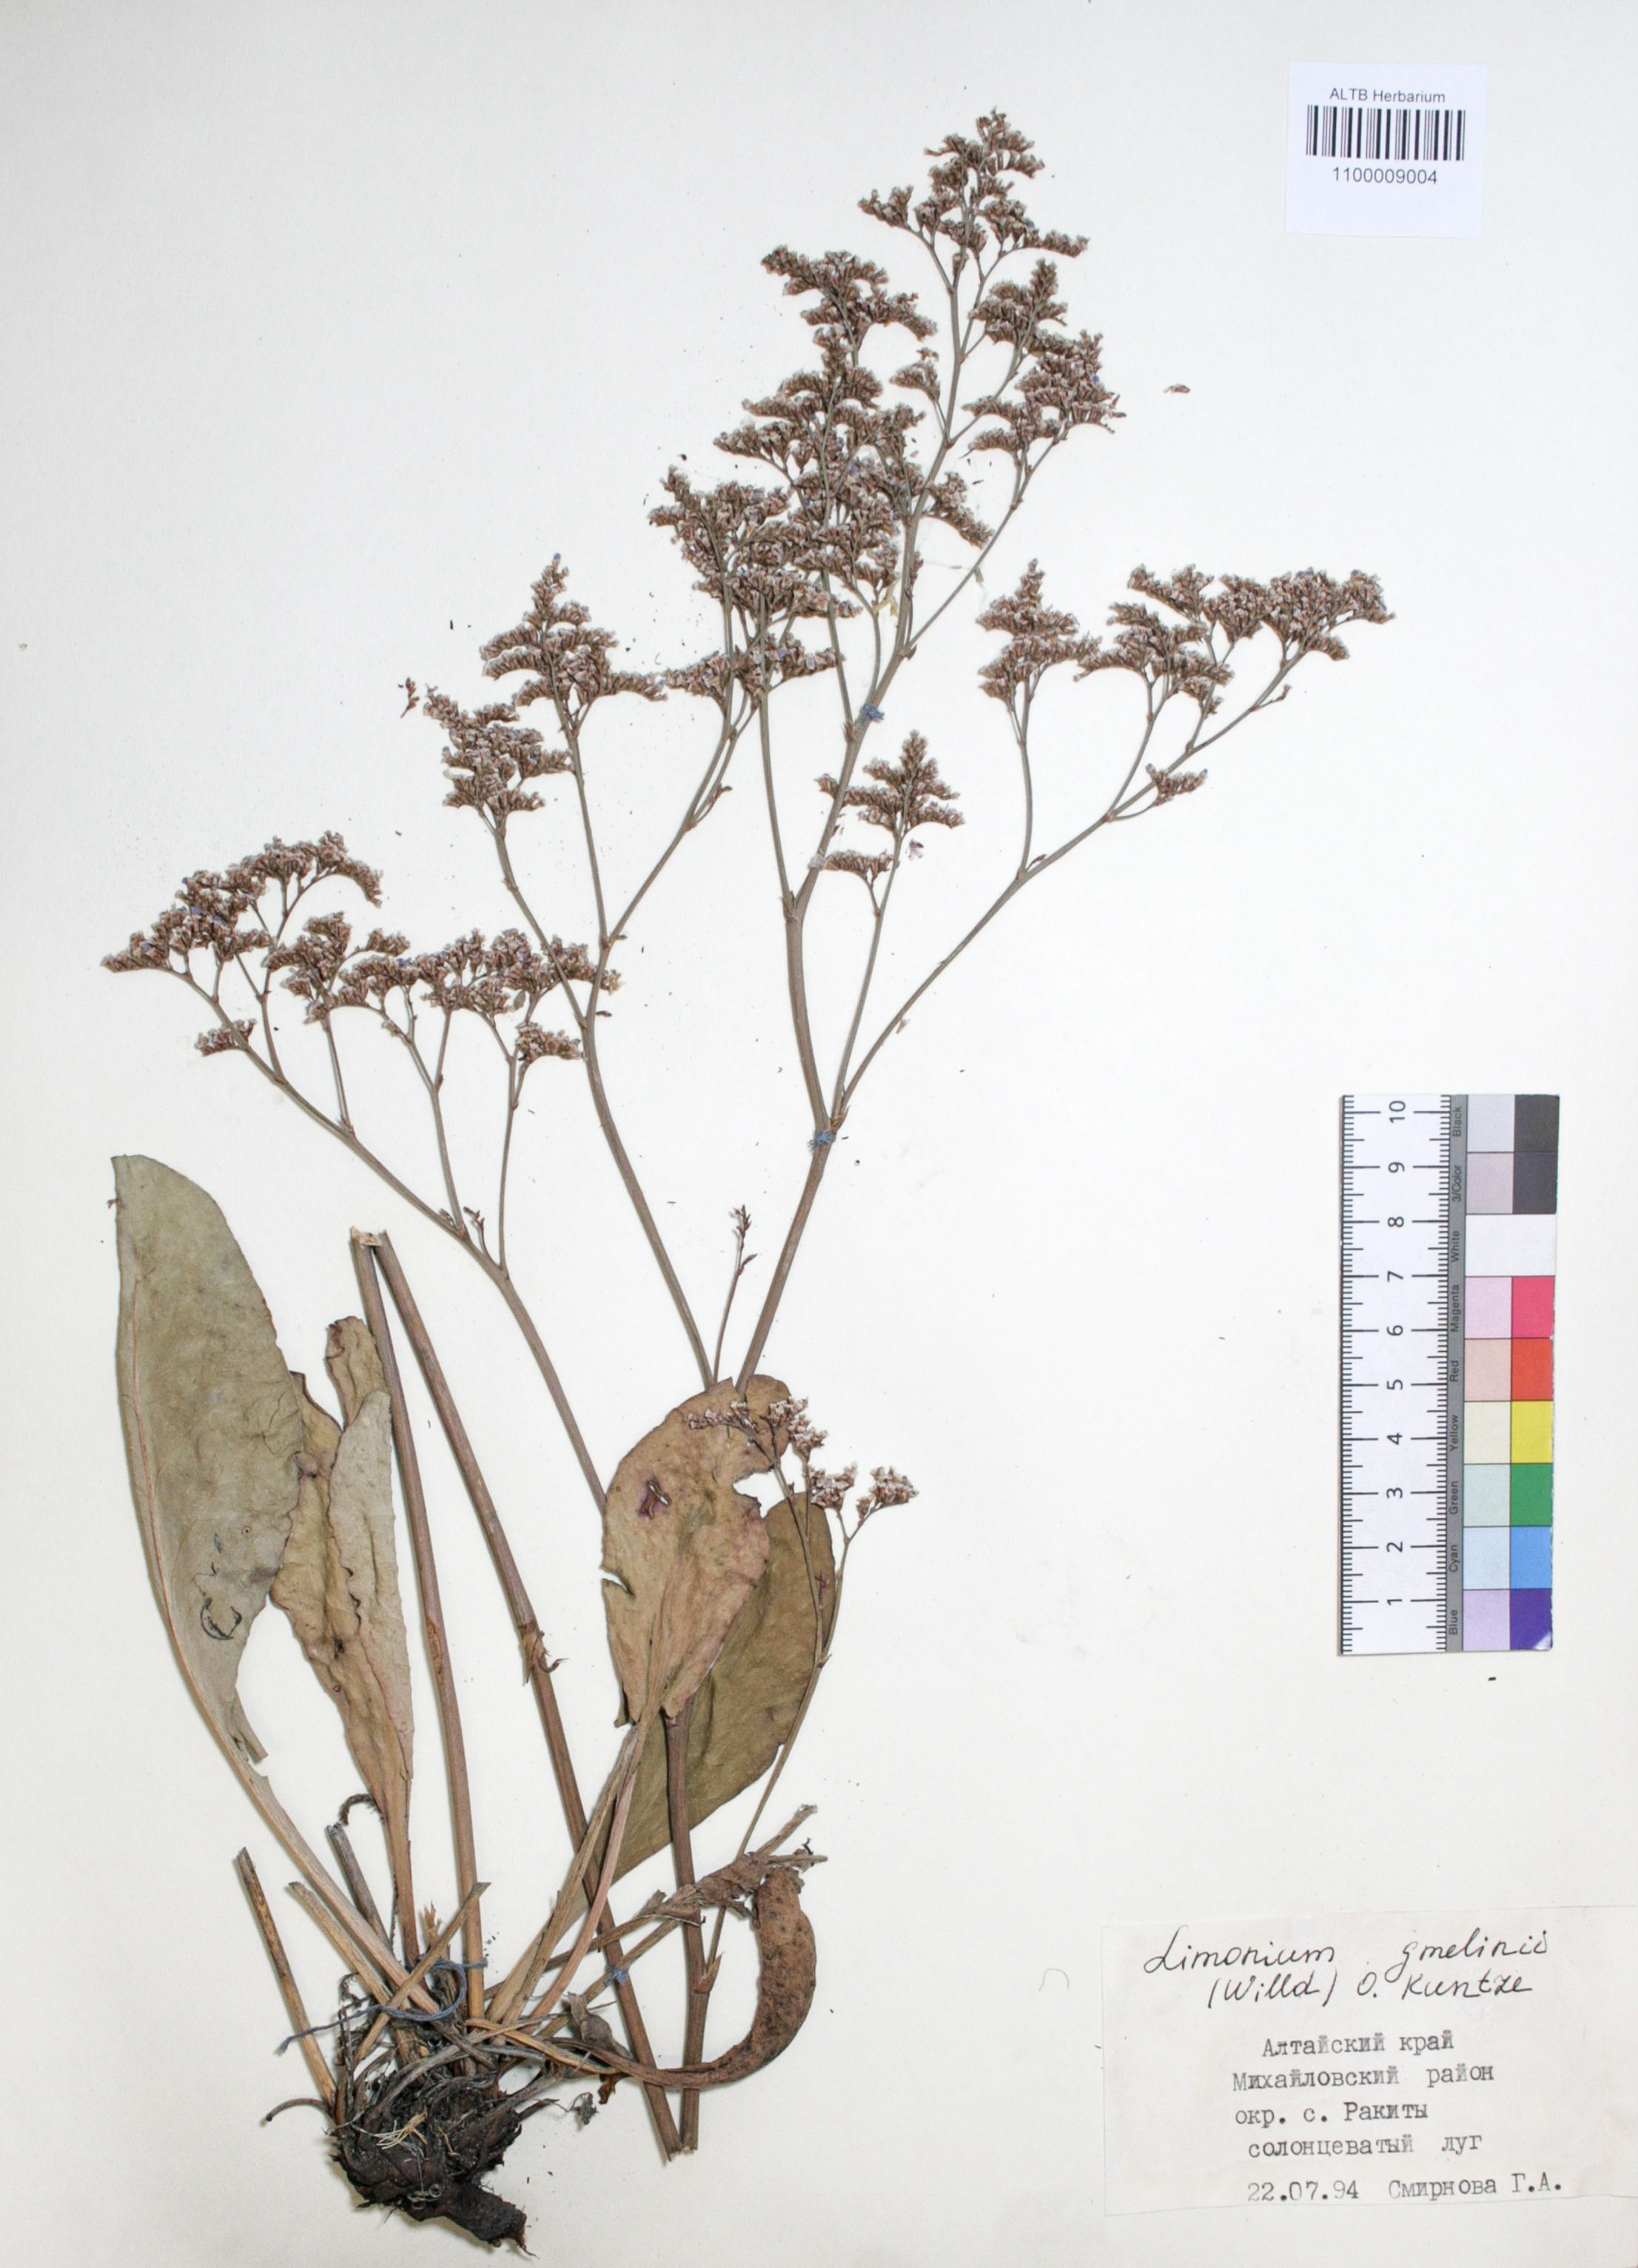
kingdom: Plantae
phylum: Tracheophyta
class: Magnoliopsida
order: Caryophyllales
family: Plumbaginaceae
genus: Limonium
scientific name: Limonium gmelini
